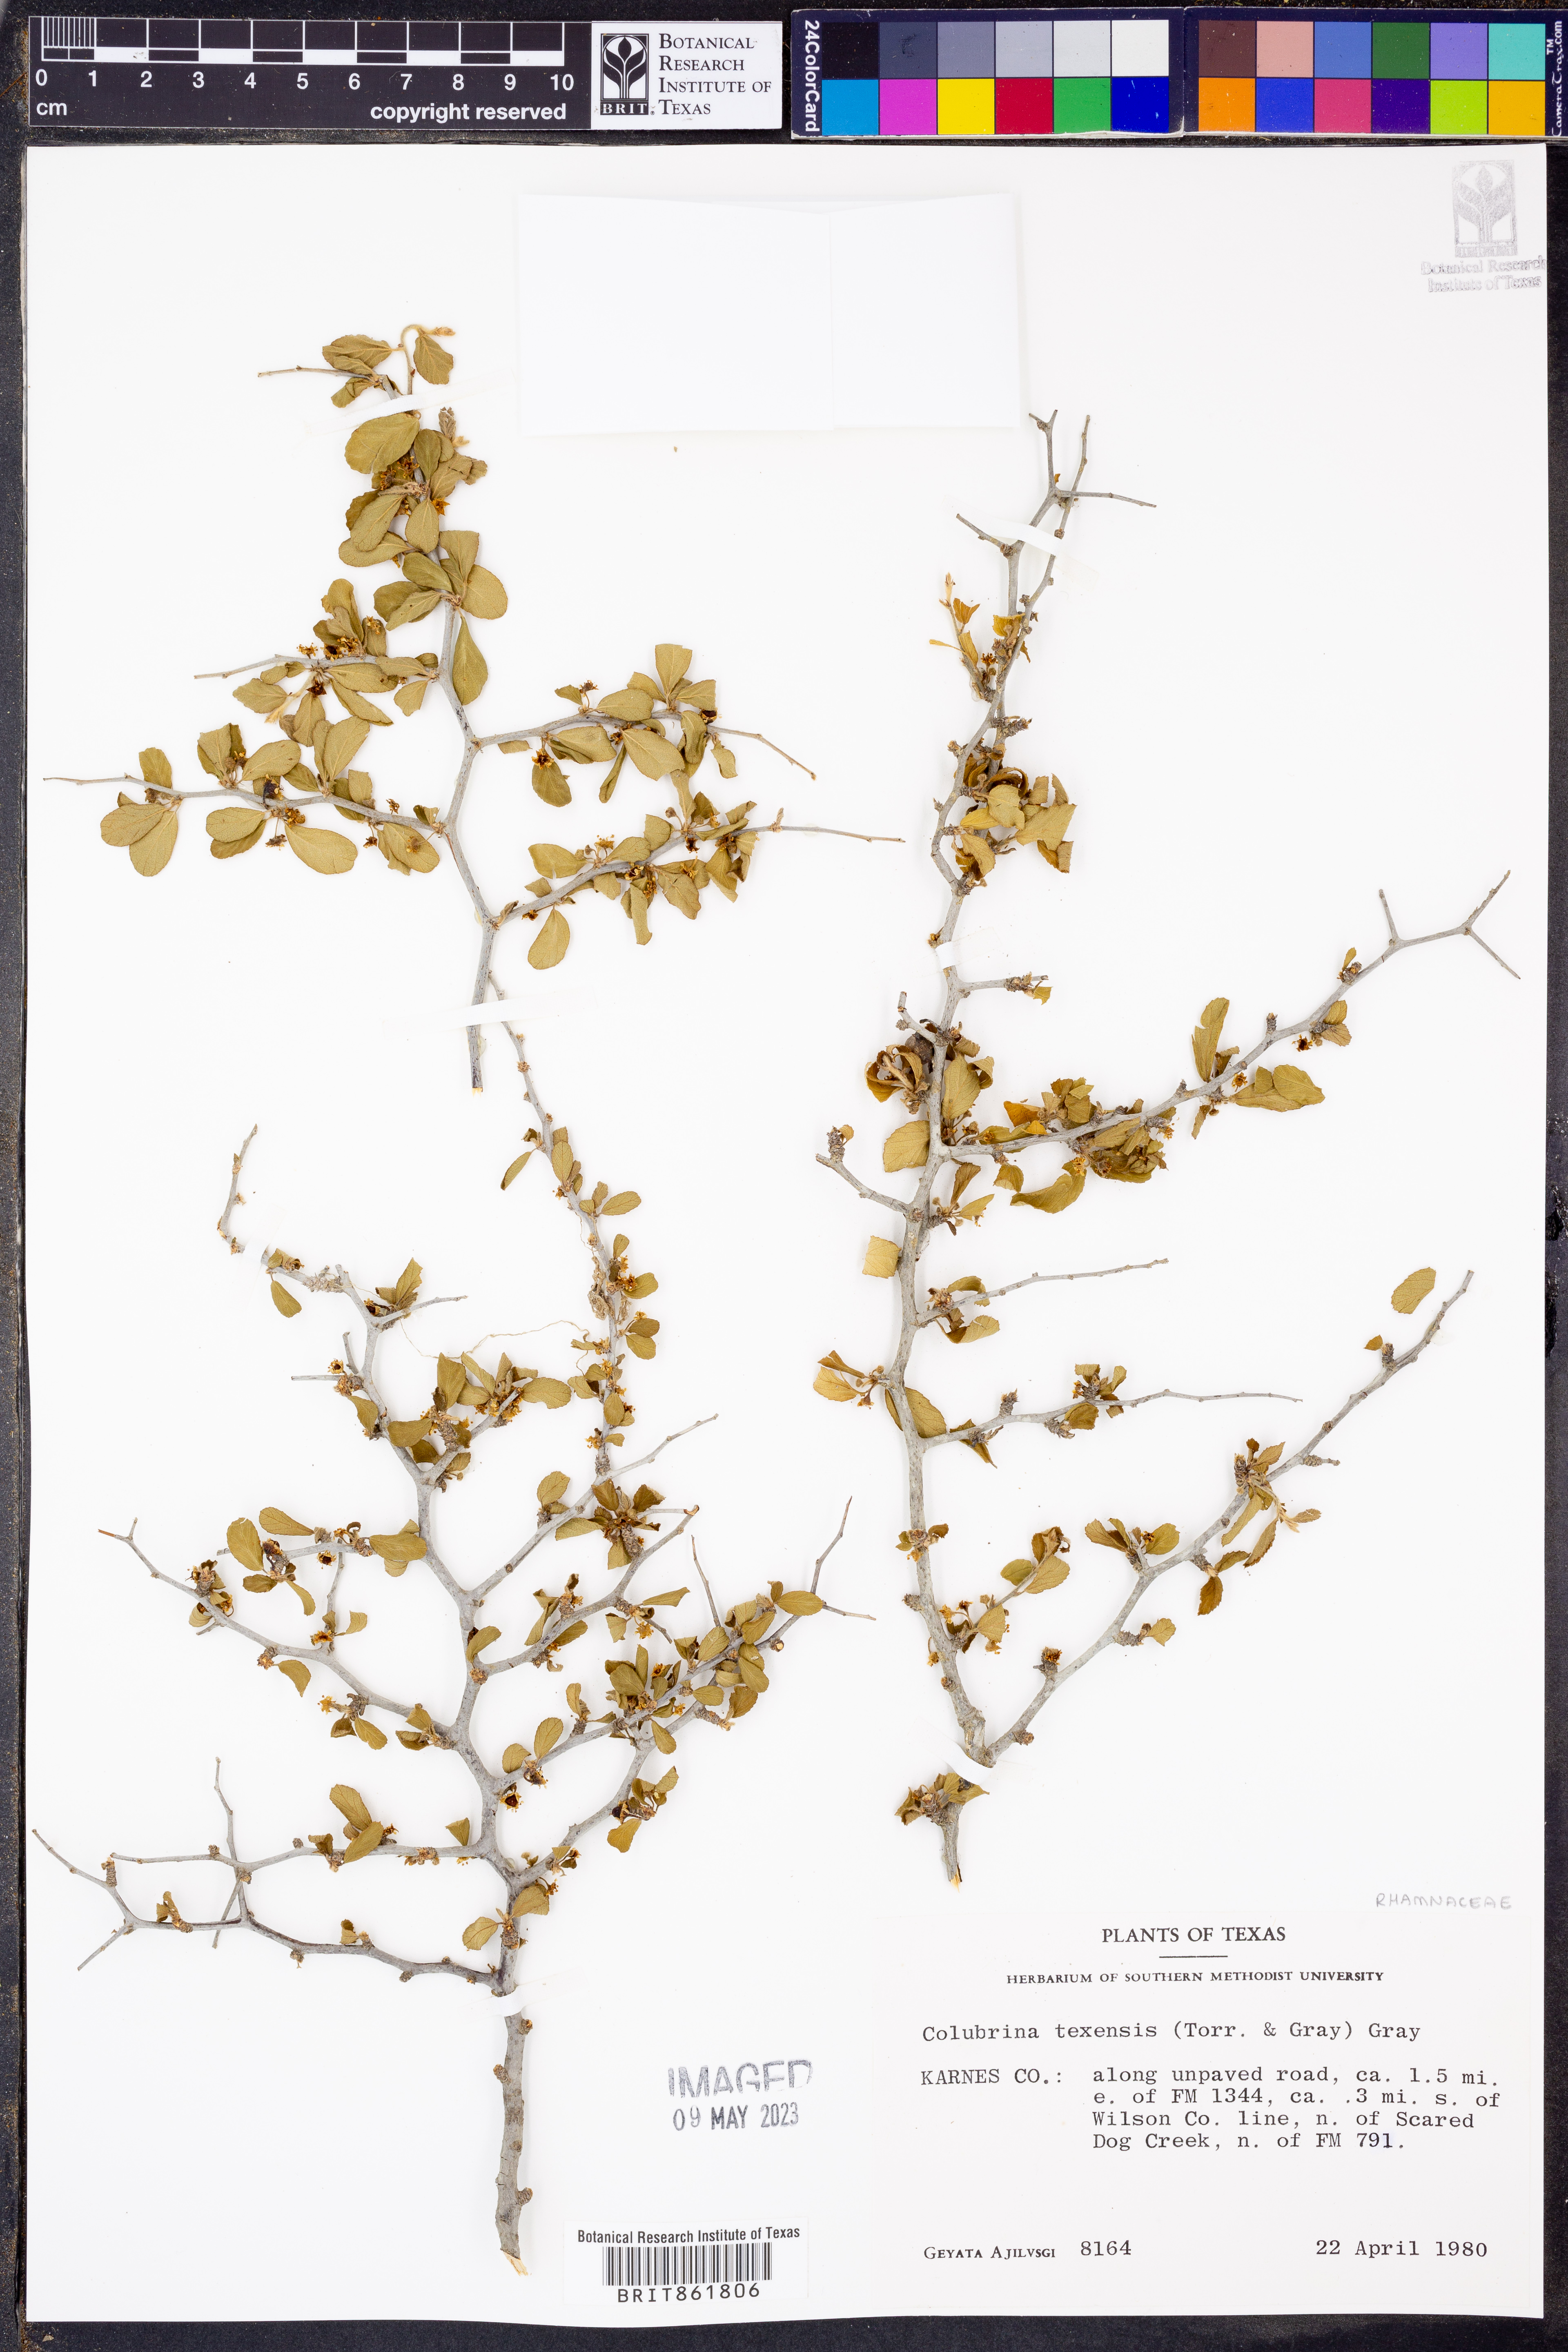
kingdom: Plantae
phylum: Tracheophyta
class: Magnoliopsida
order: Rosales
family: Rhamnaceae
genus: Colubrina
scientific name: Colubrina texensis
